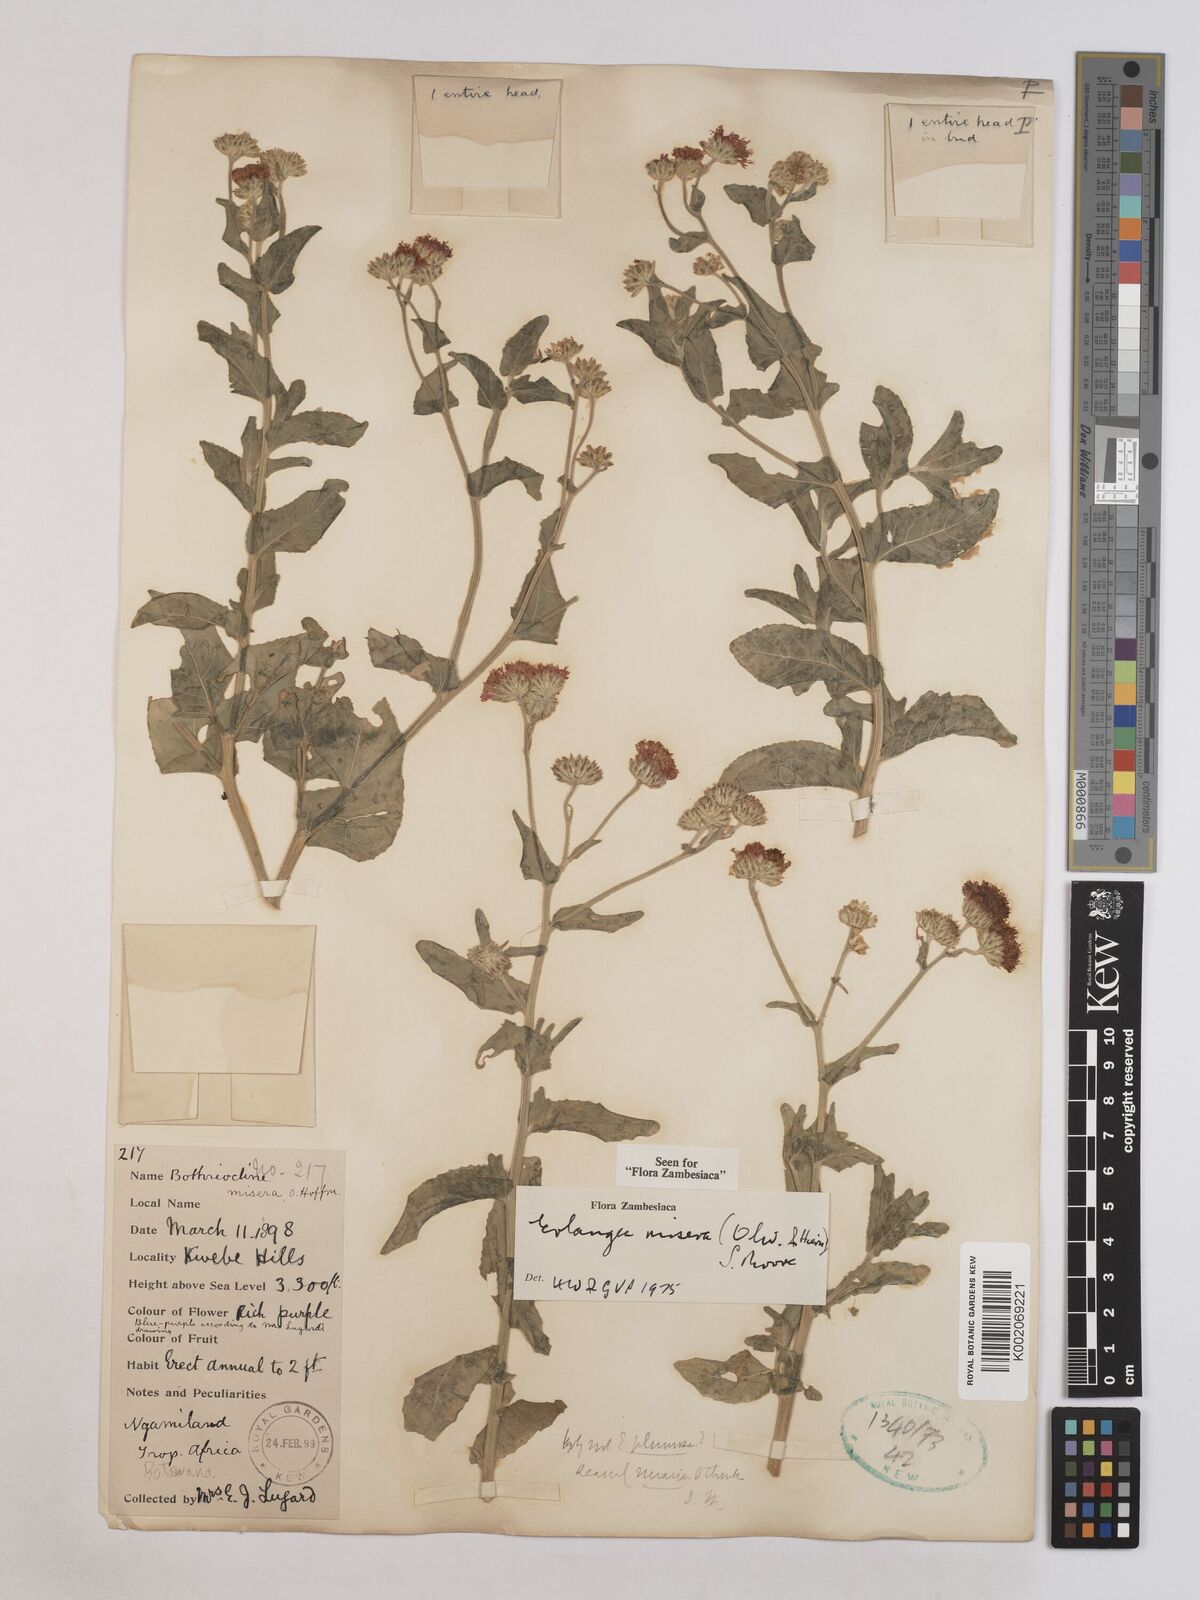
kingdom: Plantae
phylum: Tracheophyta
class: Magnoliopsida
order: Asterales
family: Asteraceae
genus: Erlangea
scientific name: Erlangea misera
